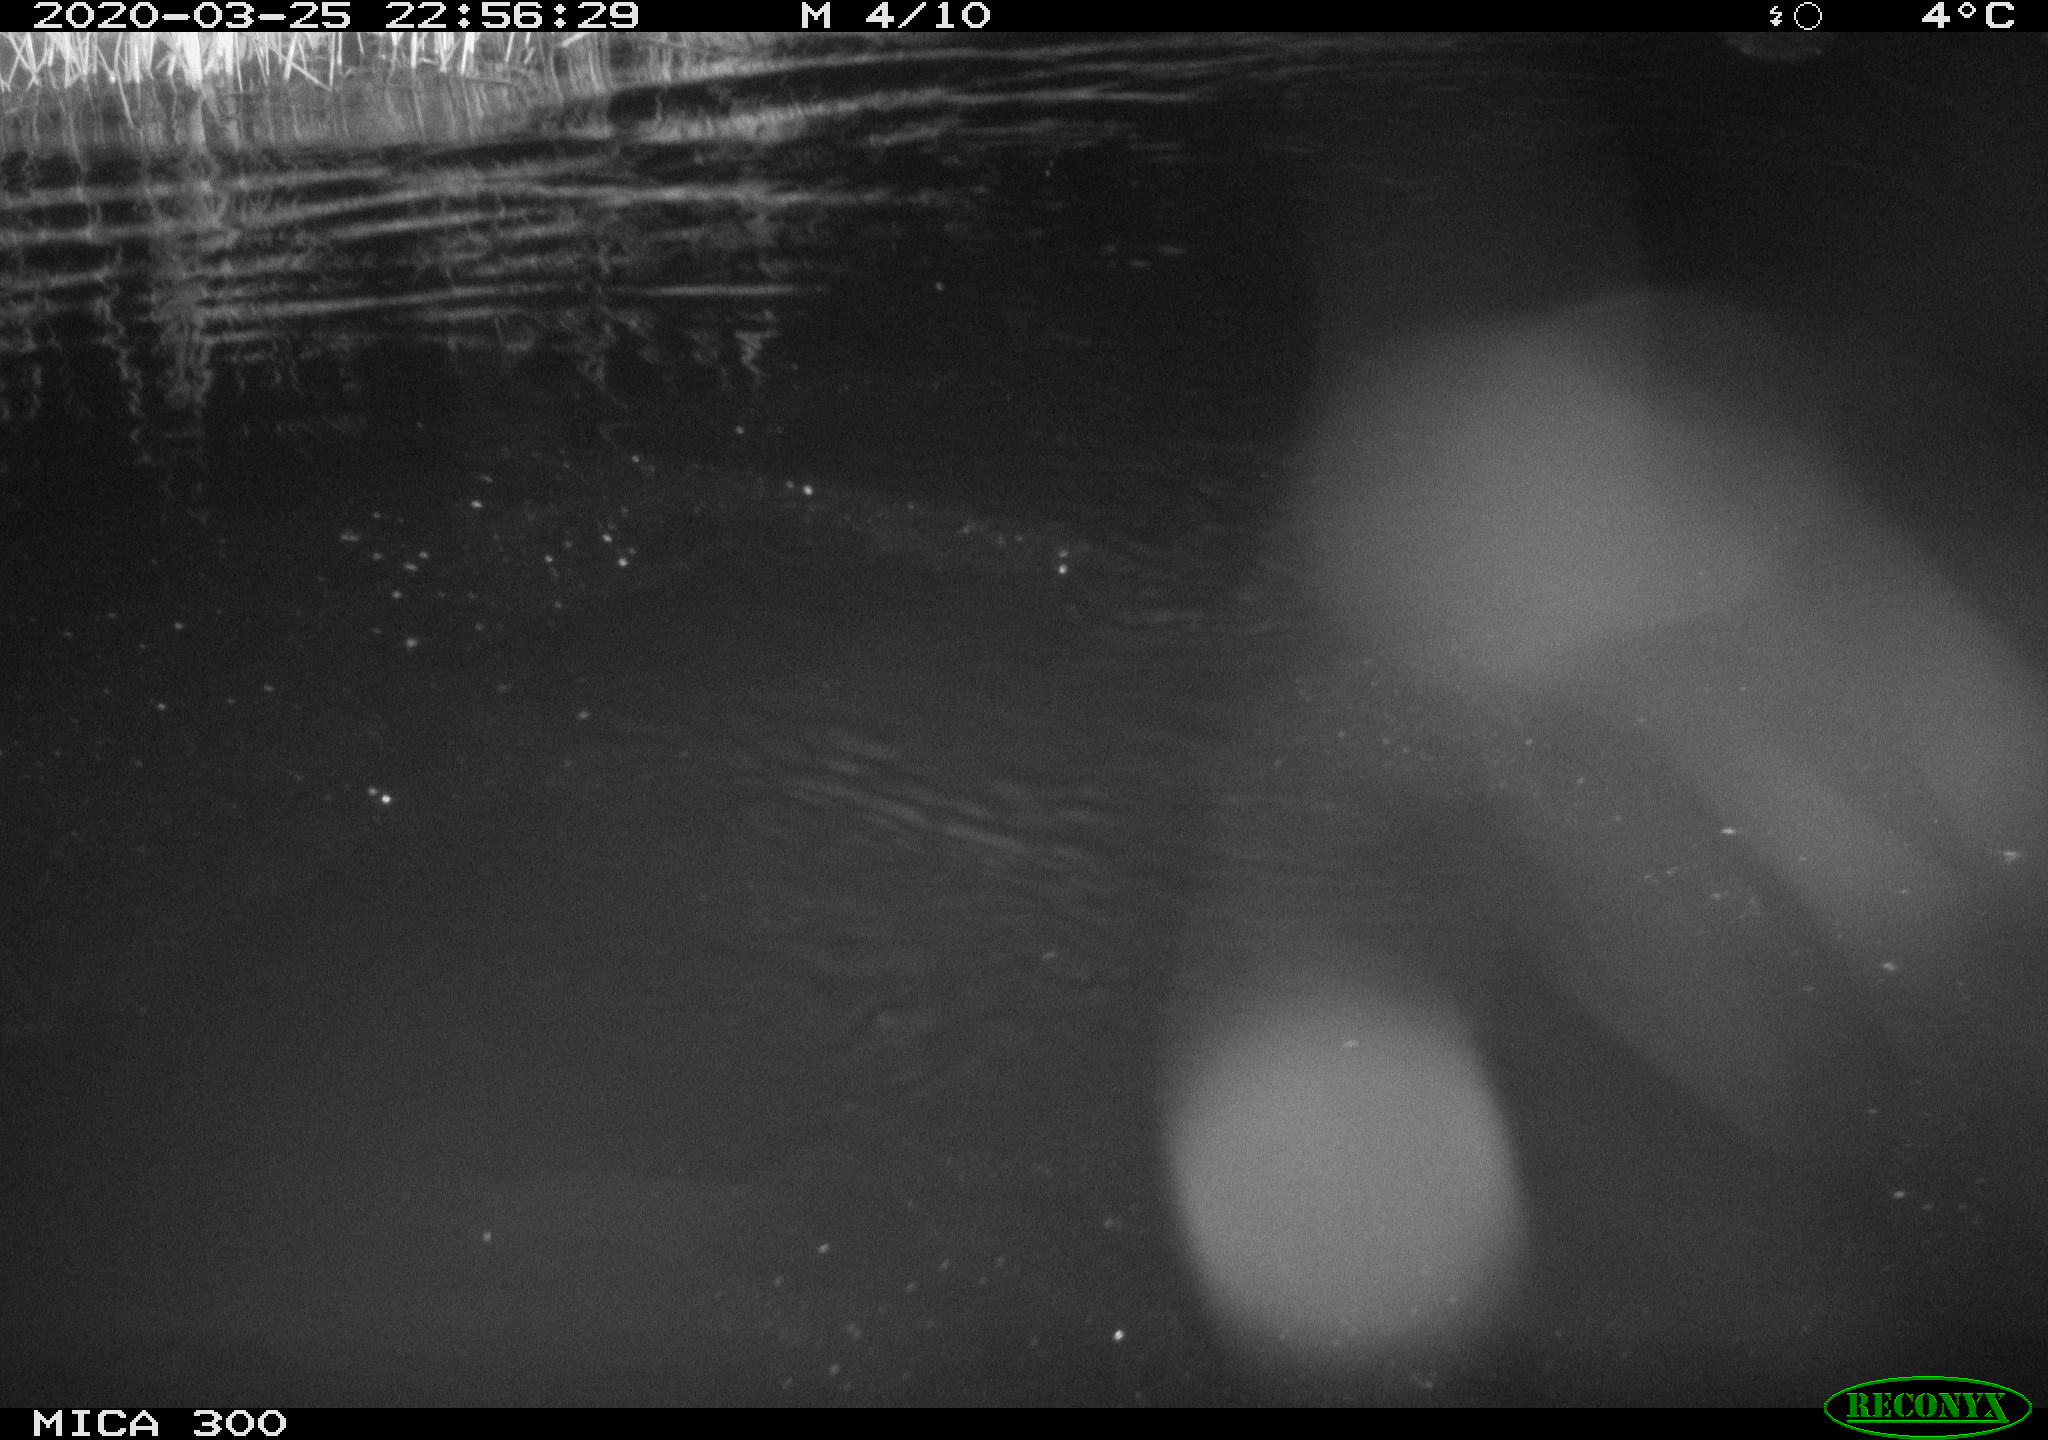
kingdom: Animalia
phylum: Chordata
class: Mammalia
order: Rodentia
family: Castoridae
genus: Castor
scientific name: Castor fiber
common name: Eurasian beaver
